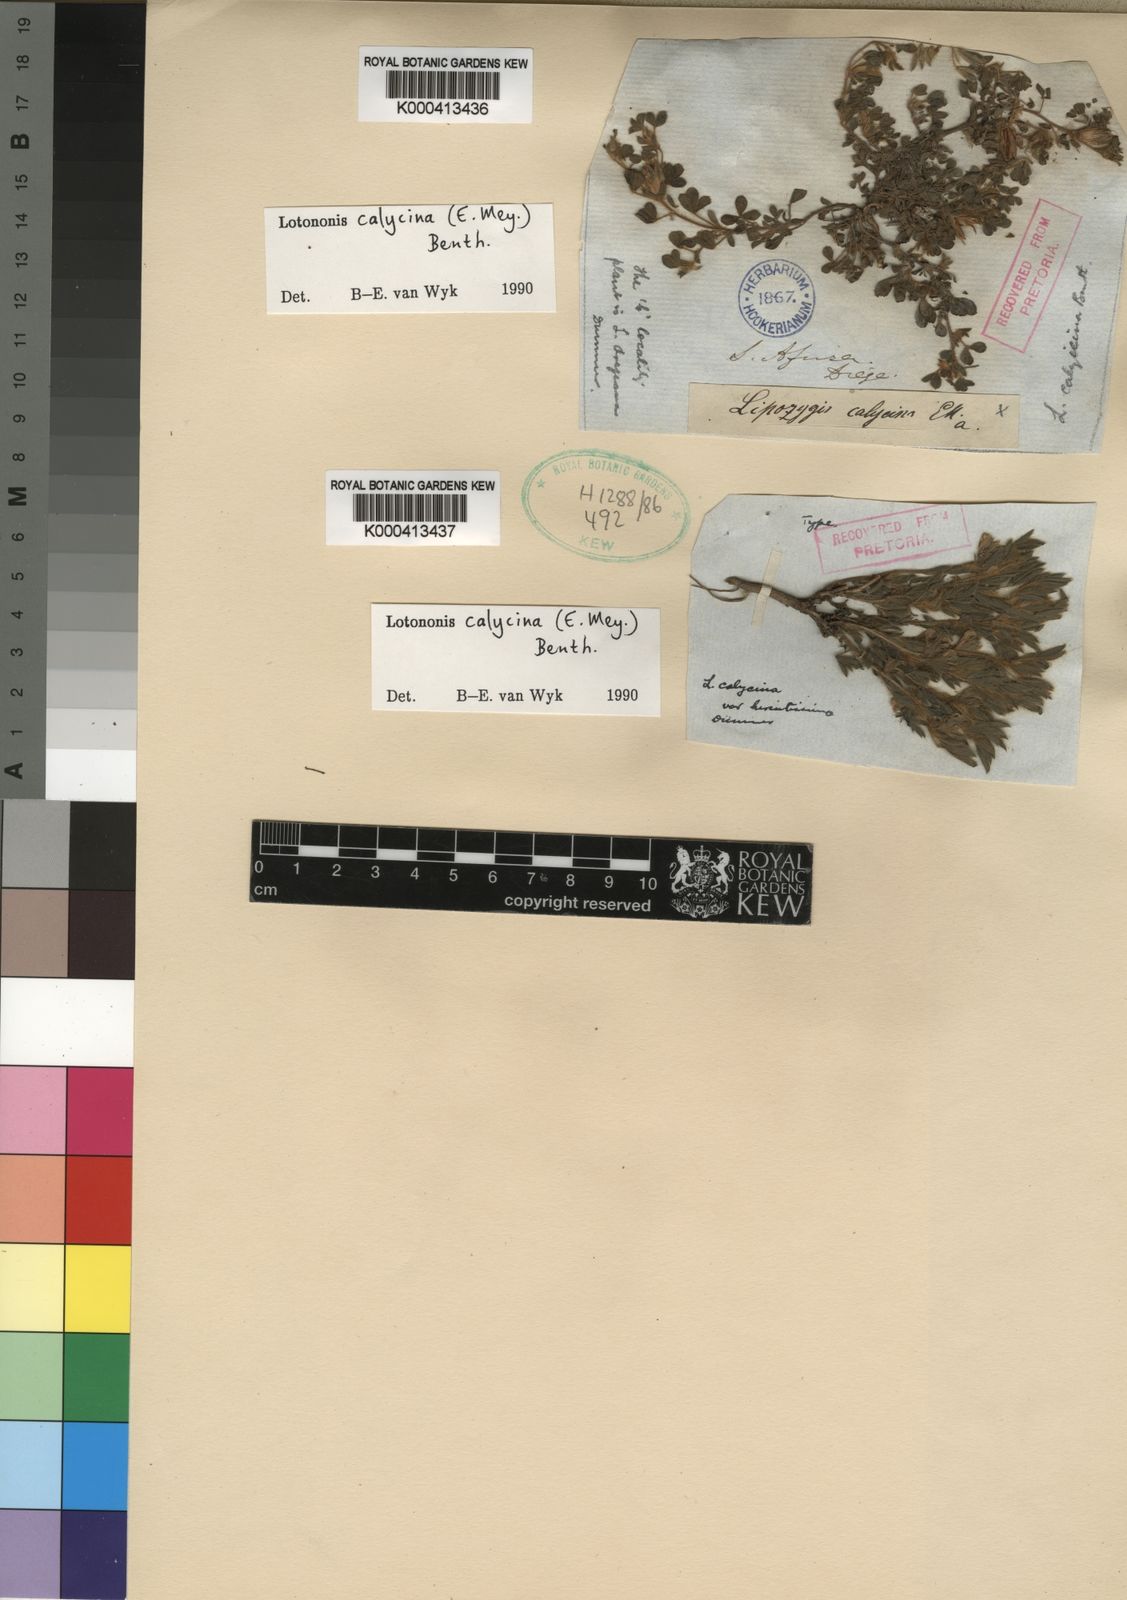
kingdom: Plantae
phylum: Tracheophyta
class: Magnoliopsida
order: Fabales
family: Fabaceae
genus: Leobordea
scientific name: Leobordea divaricata
